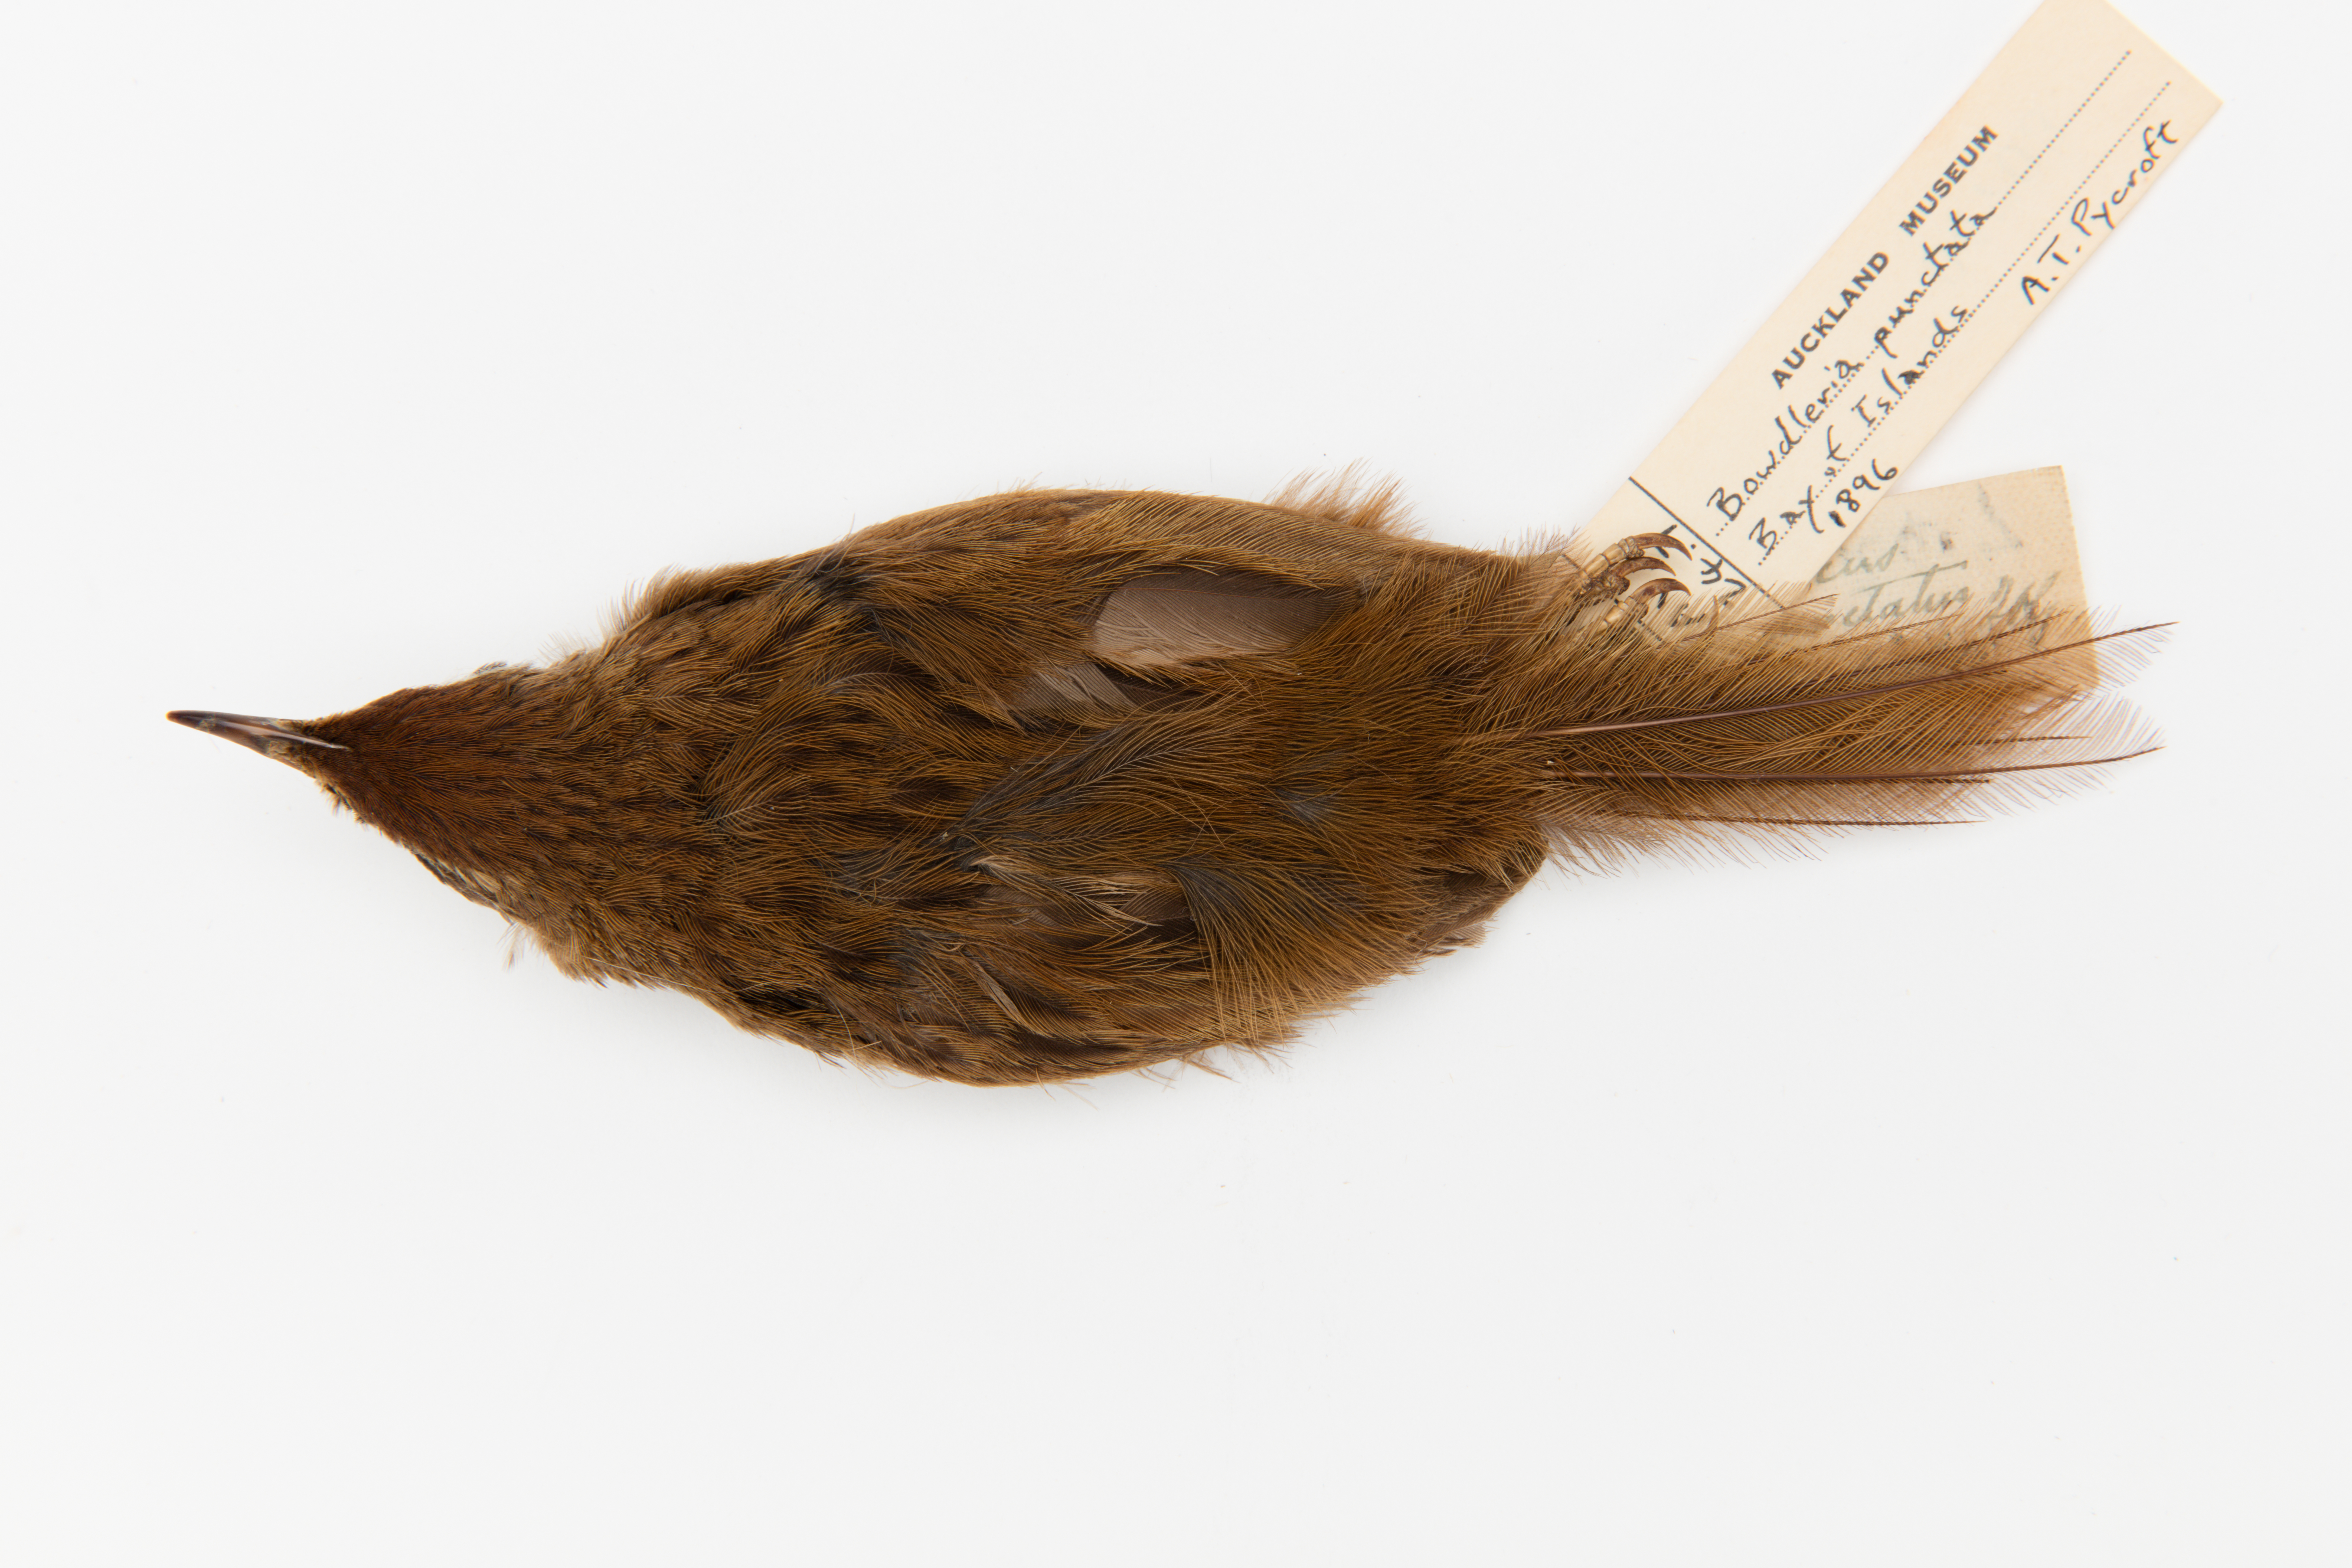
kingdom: Animalia
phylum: Chordata
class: Aves
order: Passeriformes
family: Locustellidae
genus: Megalurus
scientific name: Megalurus punctatus
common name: New zealand fernbird
